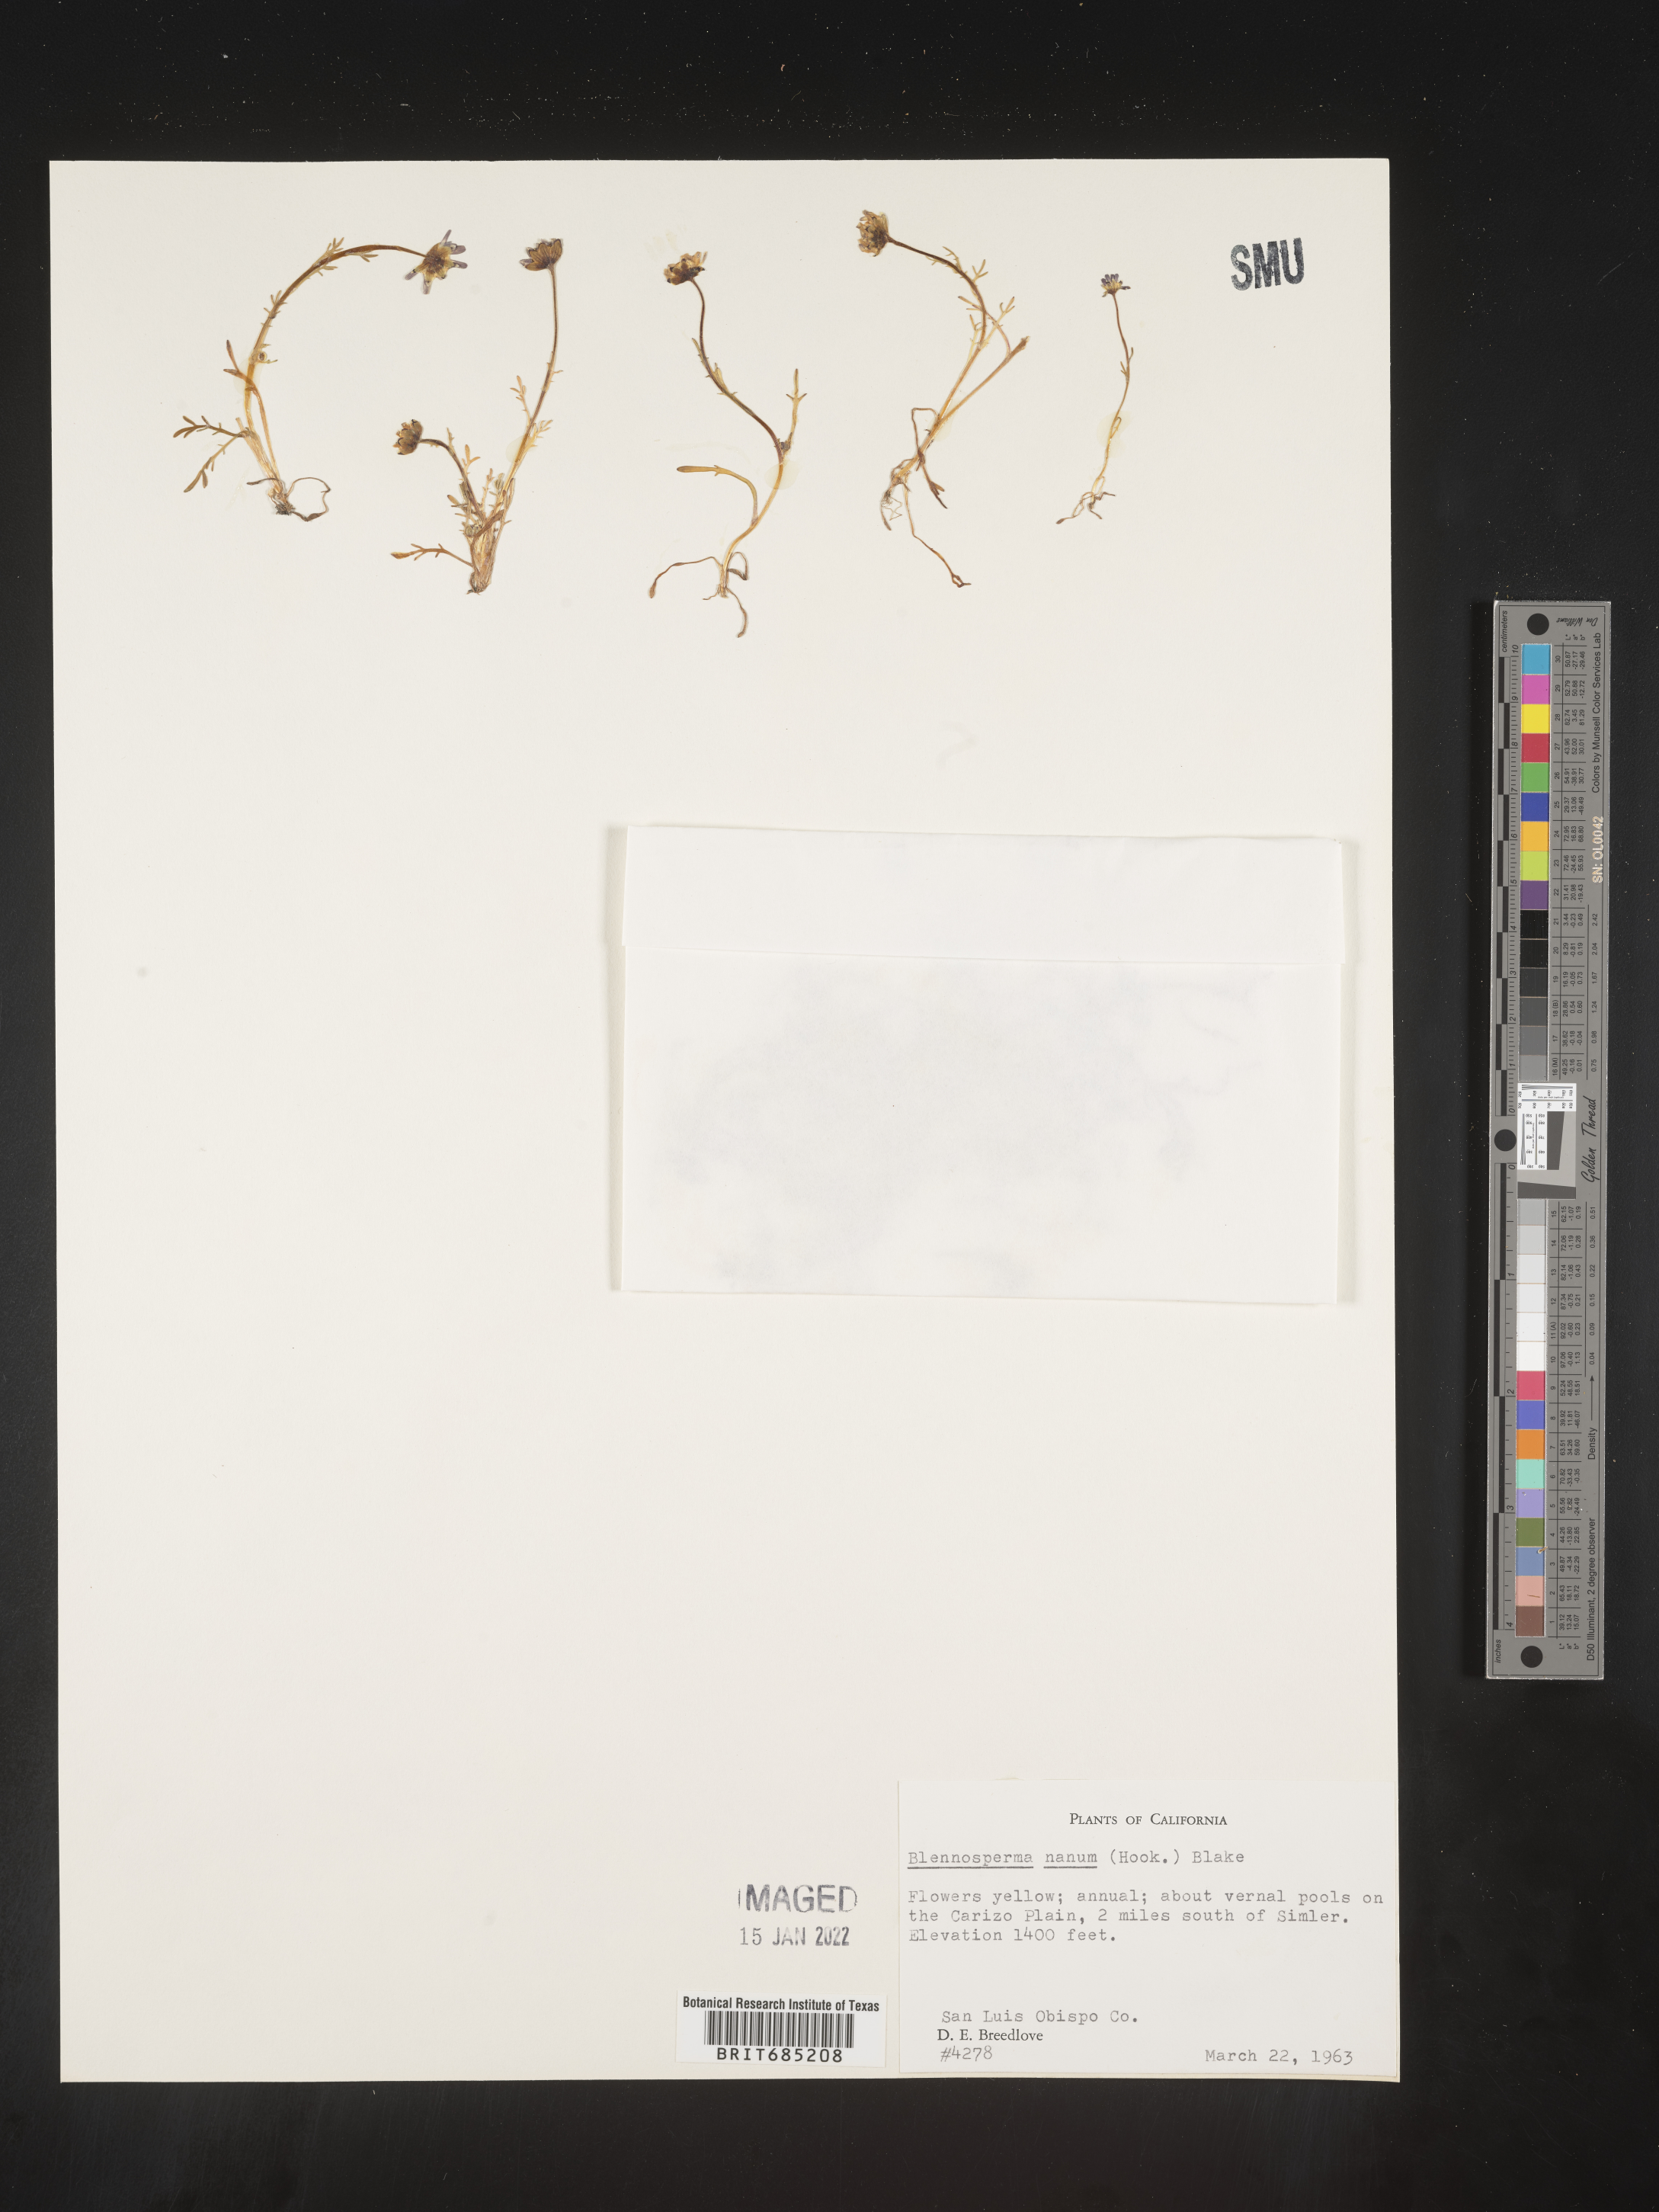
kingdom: Plantae
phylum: Tracheophyta
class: Magnoliopsida
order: Asterales
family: Asteraceae
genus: Blennosperma
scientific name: Blennosperma
